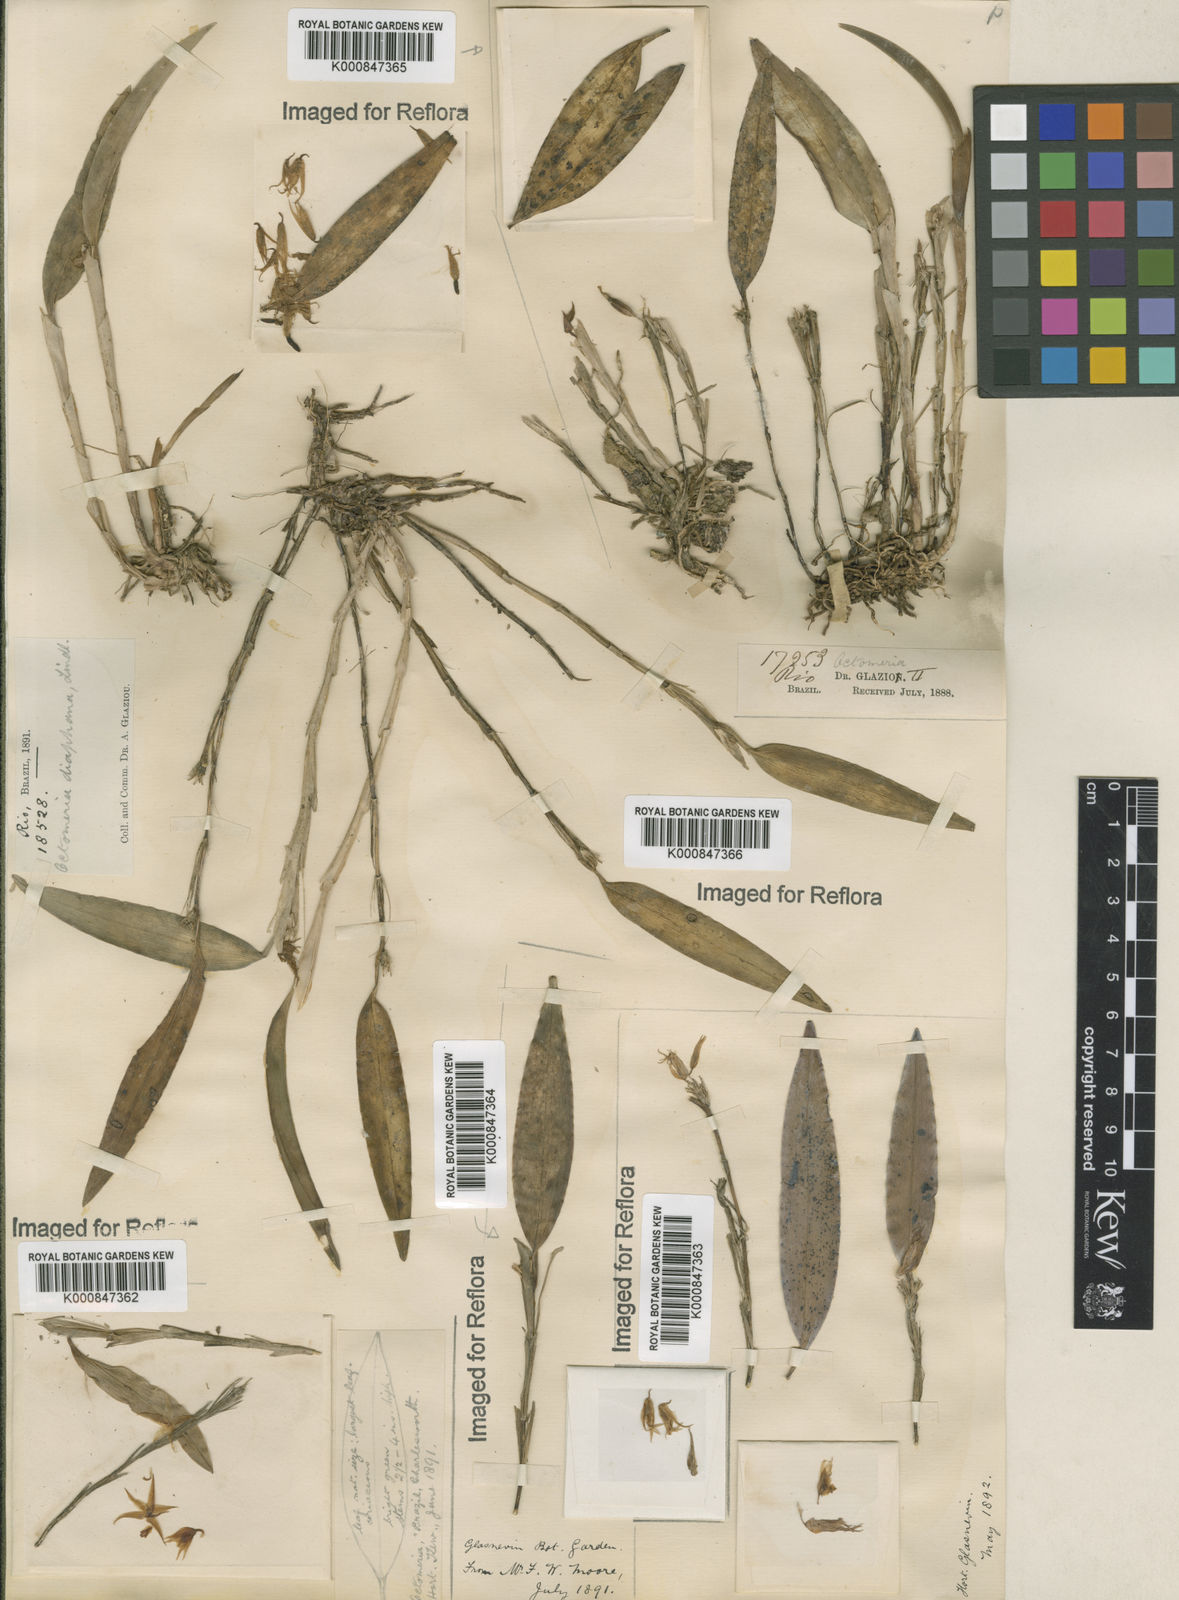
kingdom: Plantae
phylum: Tracheophyta
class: Liliopsida
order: Asparagales
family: Orchidaceae
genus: Octomeria
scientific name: Octomeria diaphana
